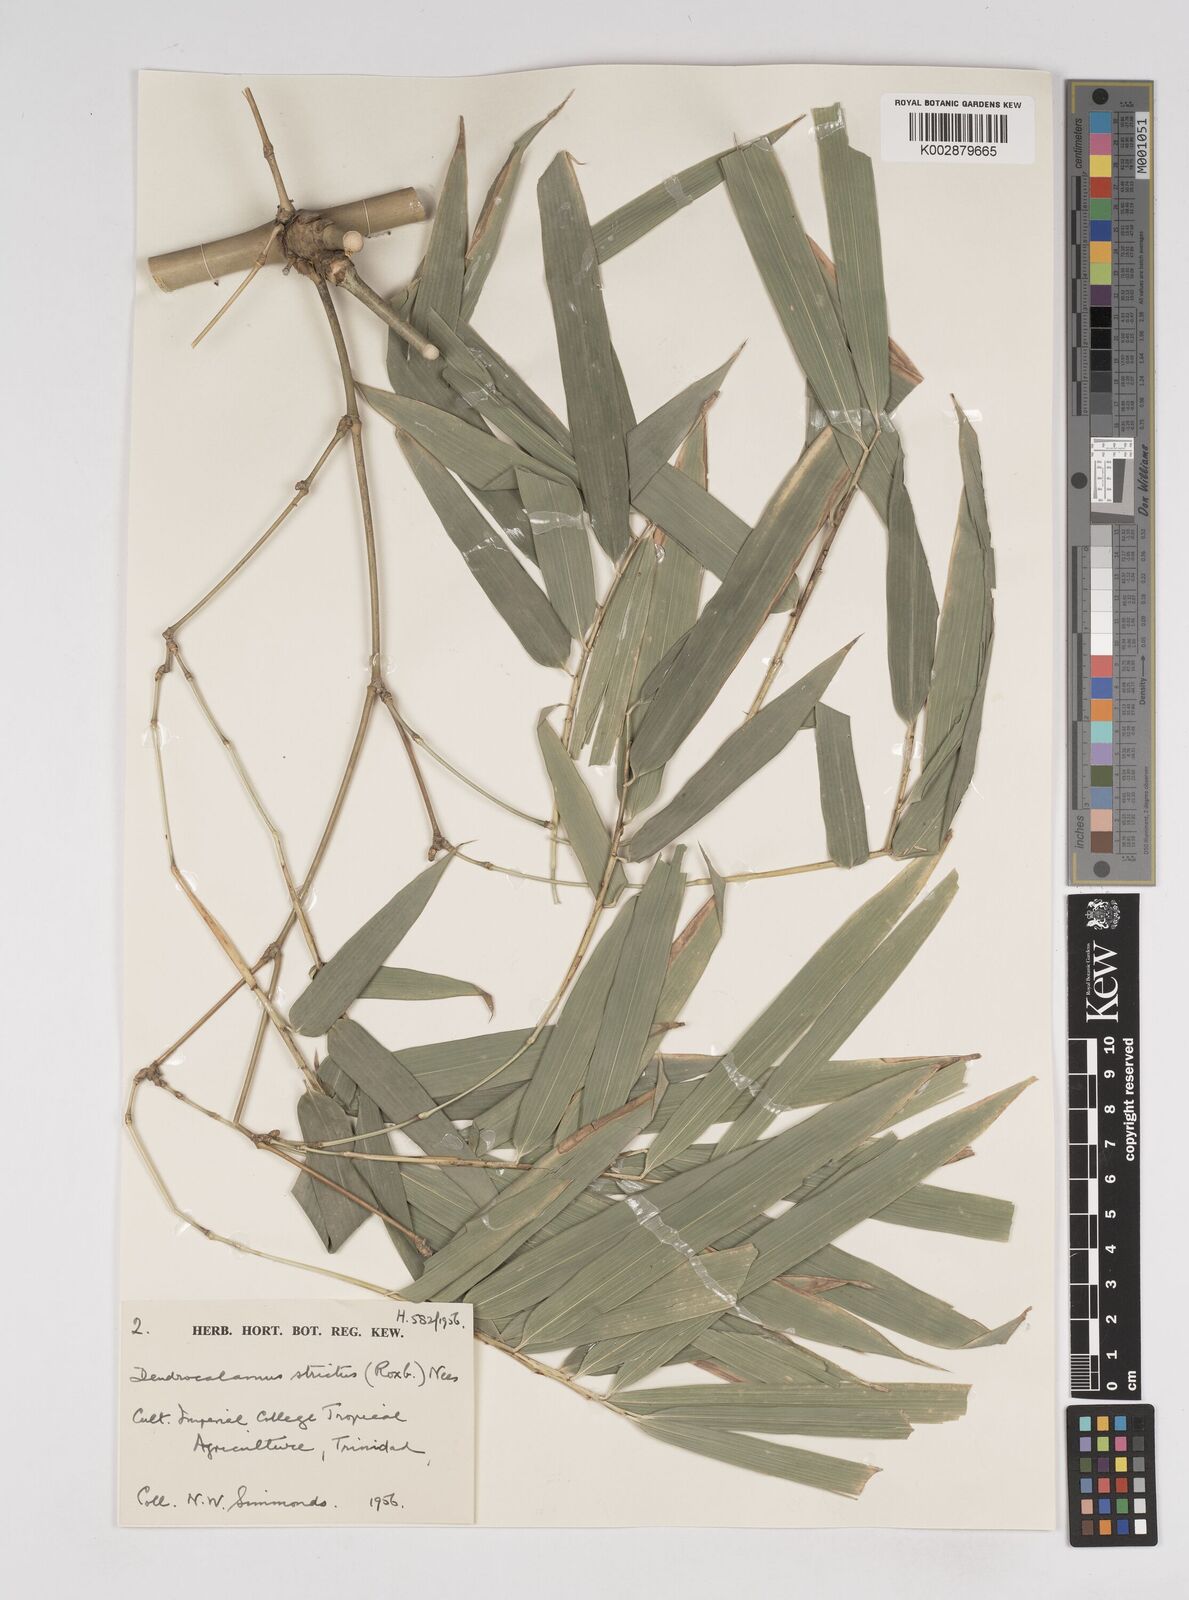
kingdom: Plantae
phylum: Tracheophyta
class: Liliopsida
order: Poales
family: Poaceae
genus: Dendrocalamus
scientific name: Dendrocalamus strictus
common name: Male bamboo
